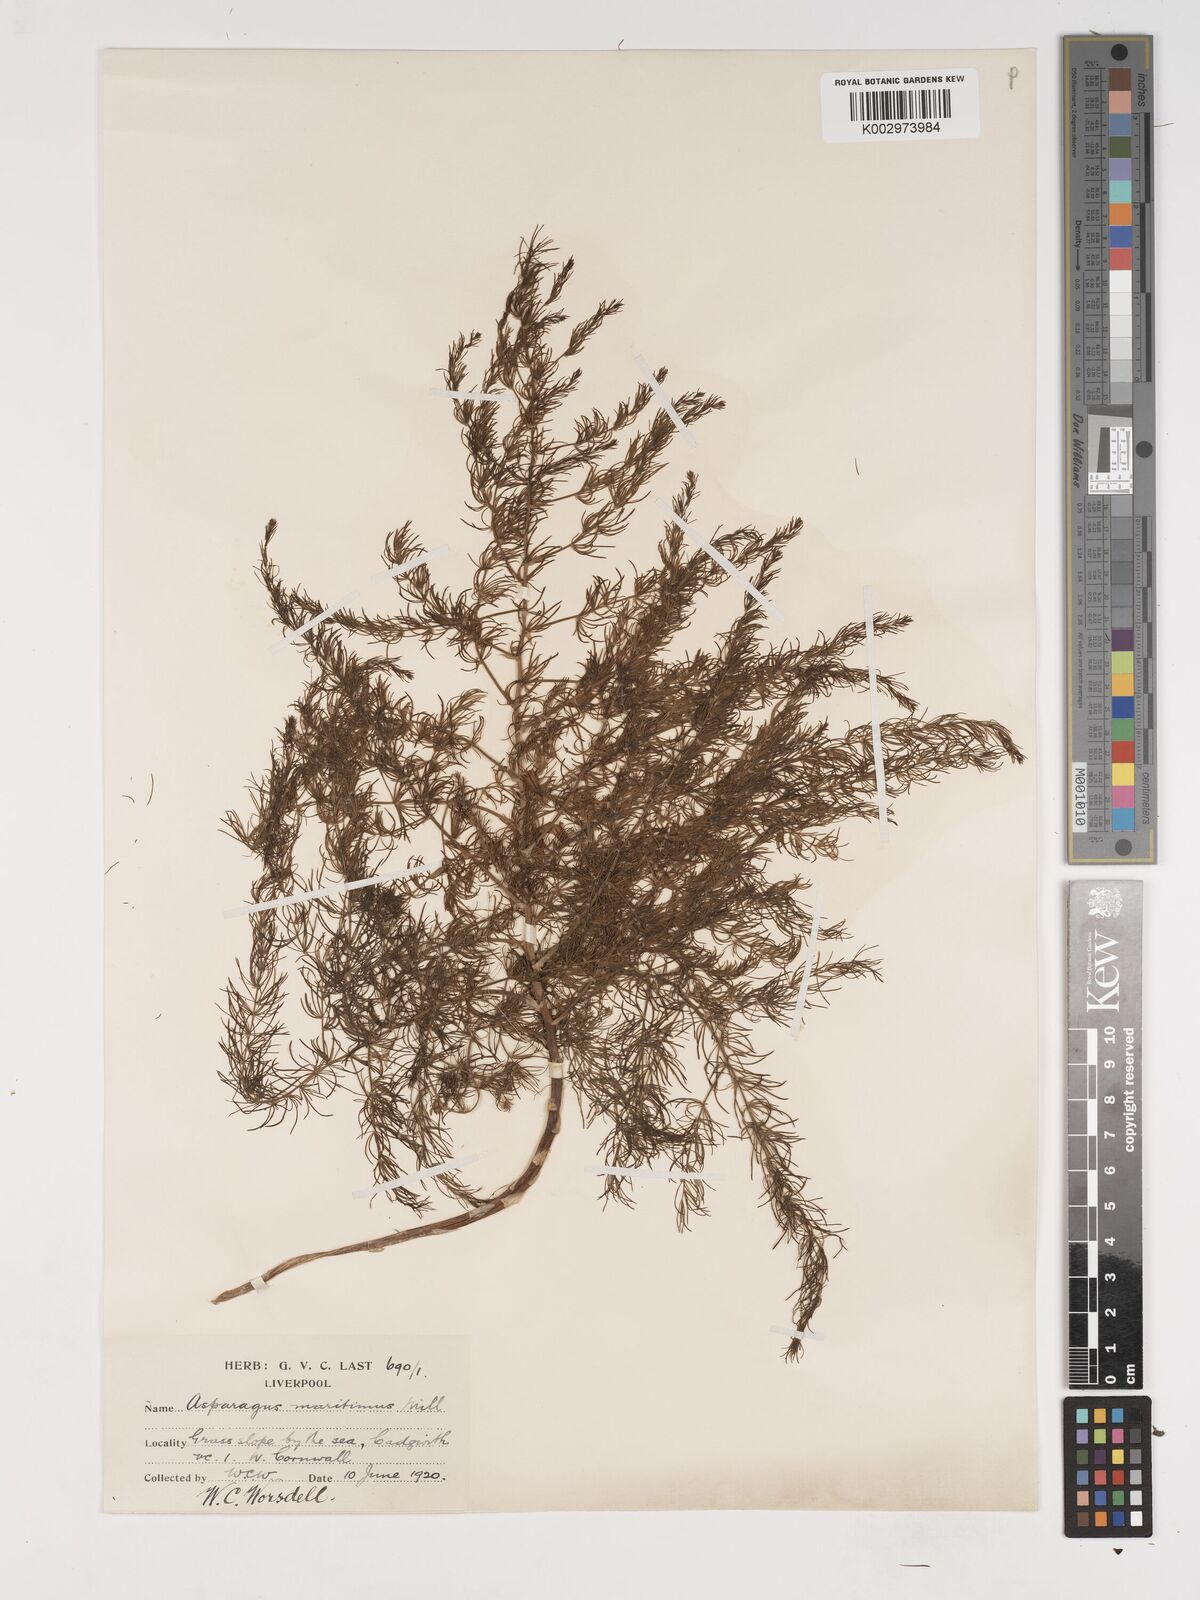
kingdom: Plantae
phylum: Tracheophyta
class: Liliopsida
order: Asparagales
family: Asparagaceae
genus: Asparagus
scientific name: Asparagus maritimus
